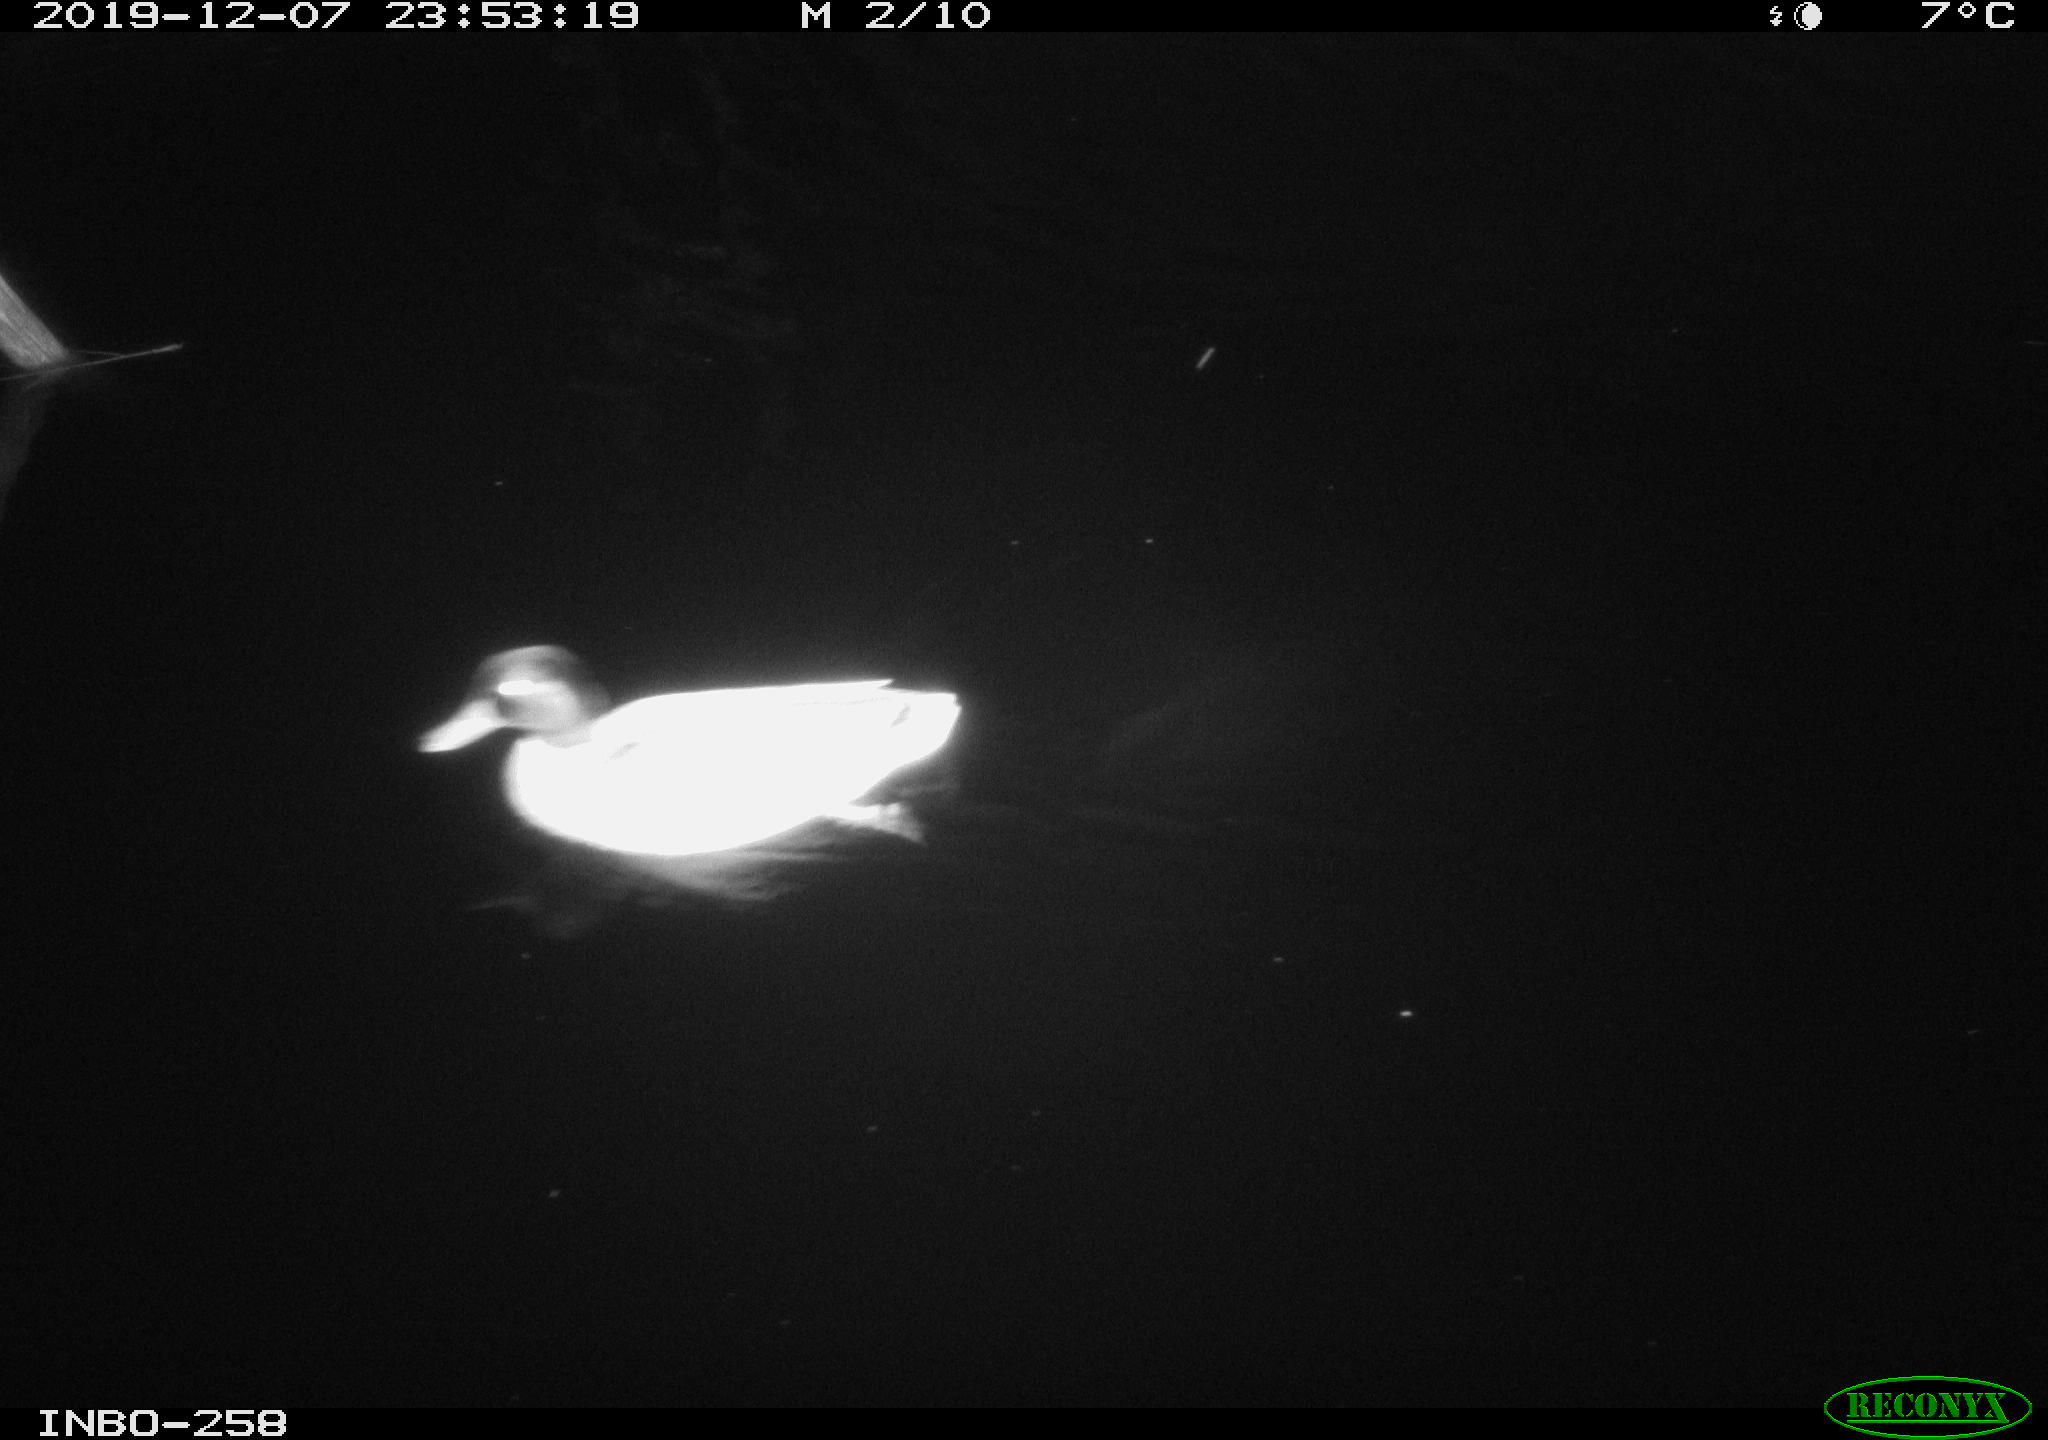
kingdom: Animalia
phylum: Chordata
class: Aves
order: Anseriformes
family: Anatidae
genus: Anas
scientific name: Anas platyrhynchos
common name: Mallard
